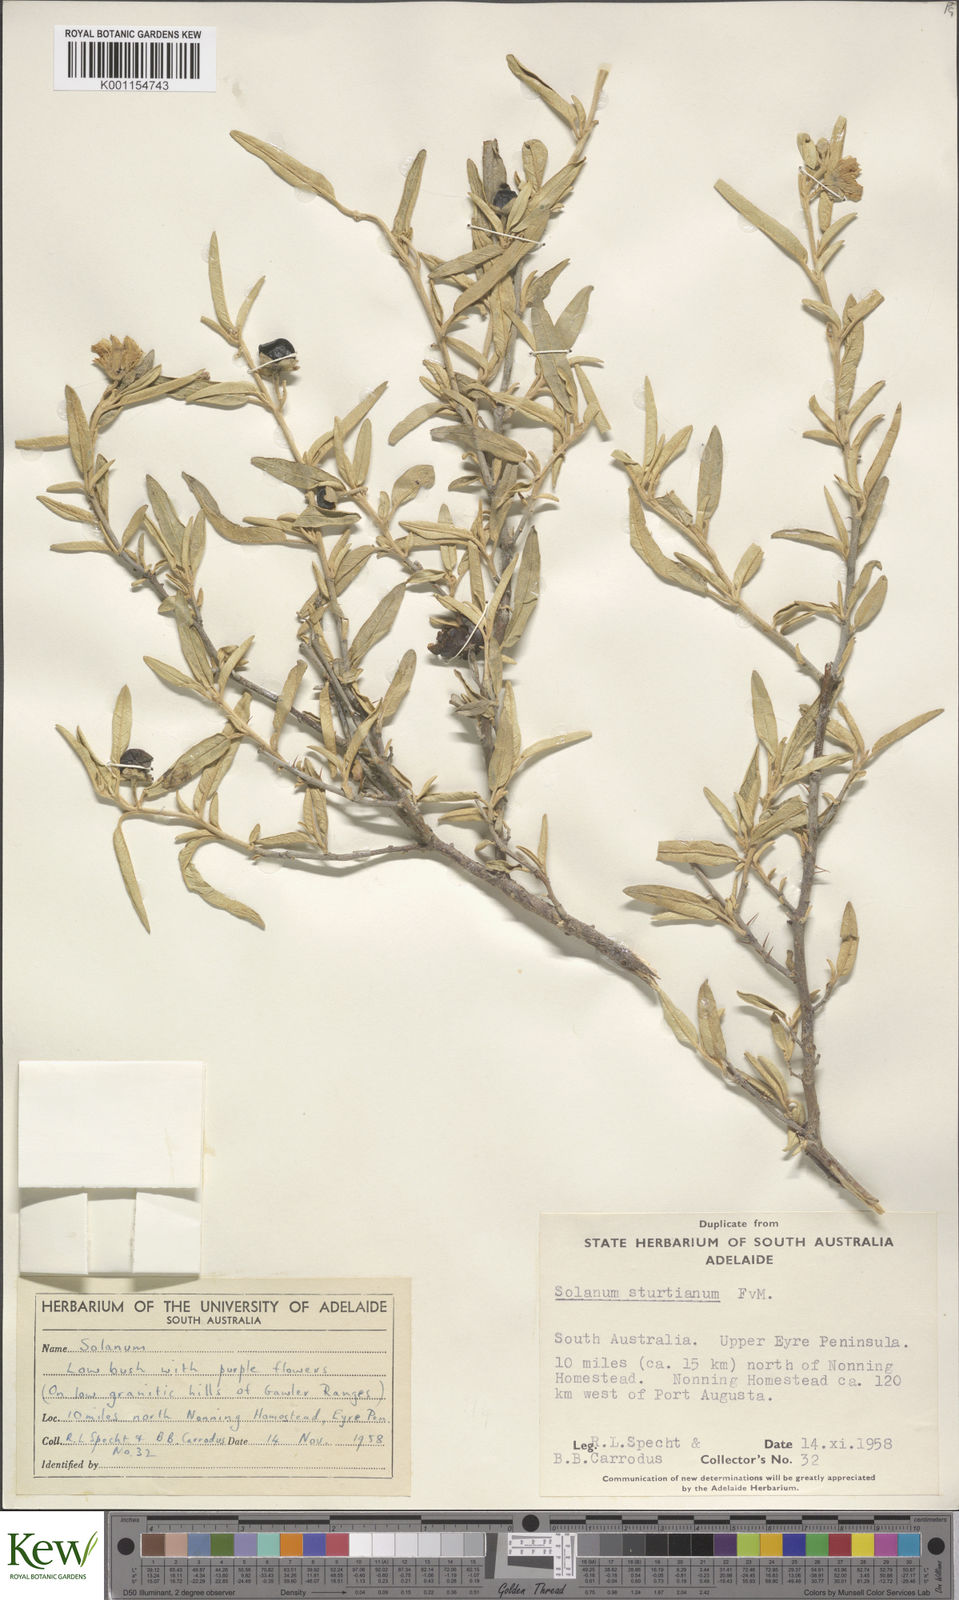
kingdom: Plantae
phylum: Tracheophyta
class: Magnoliopsida
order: Solanales
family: Solanaceae
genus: Solanum
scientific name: Solanum sturtianum
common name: Thargomindah nightshade
